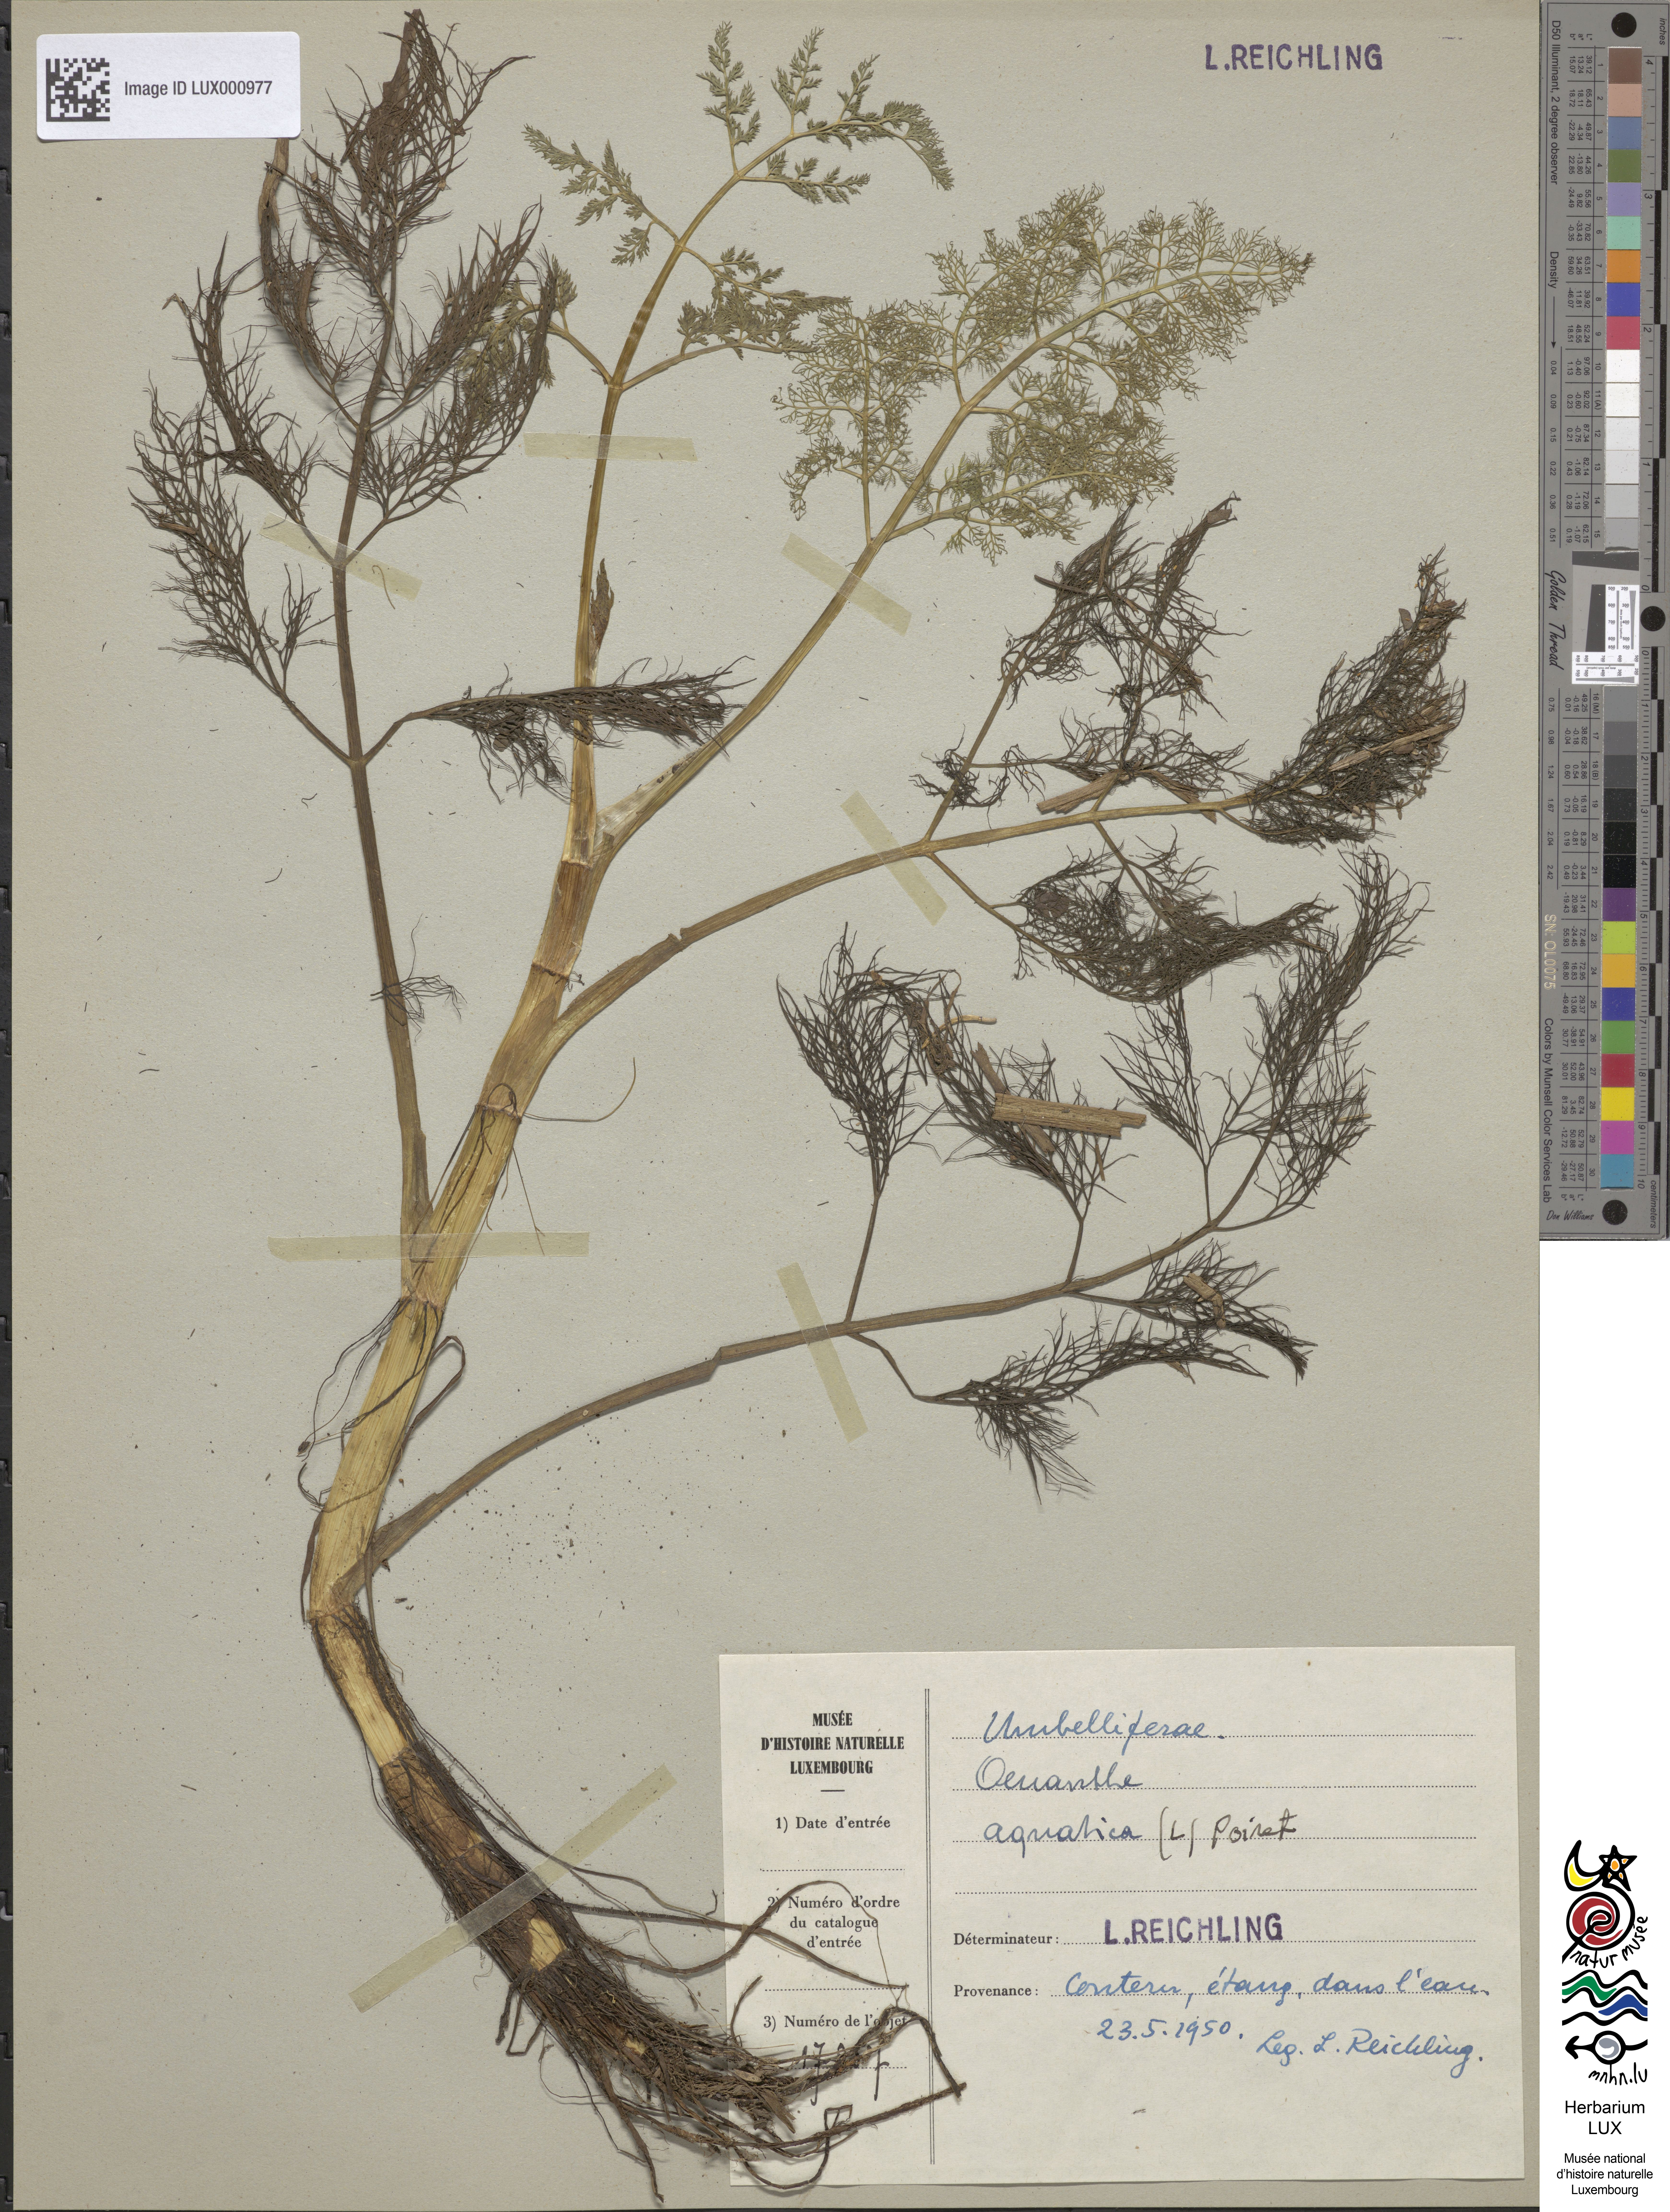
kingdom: Plantae
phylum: Tracheophyta
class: Magnoliopsida
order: Apiales
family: Apiaceae
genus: Oenanthe
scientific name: Oenanthe aquatica
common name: Fine-leaved water-dropwort
